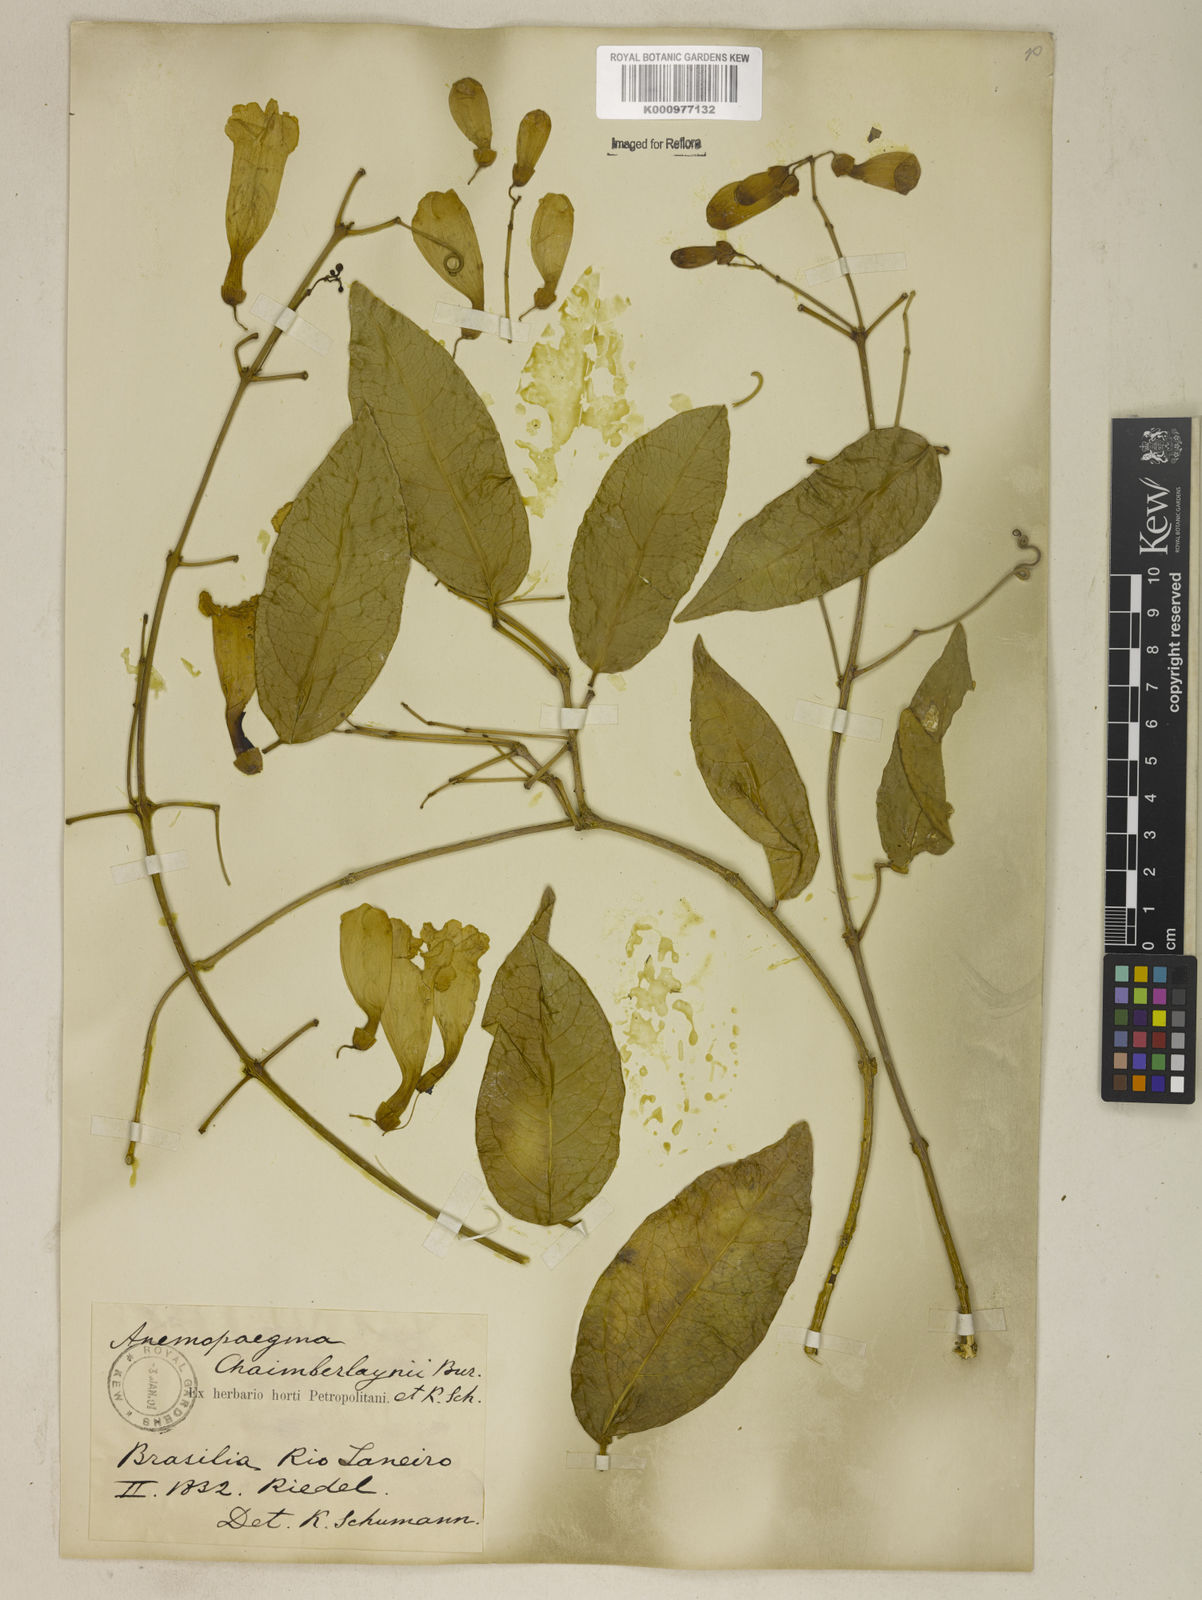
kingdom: Plantae
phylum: Tracheophyta
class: Magnoliopsida
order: Lamiales
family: Bignoniaceae
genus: Anemopaegma
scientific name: Anemopaegma chamberlaynii
